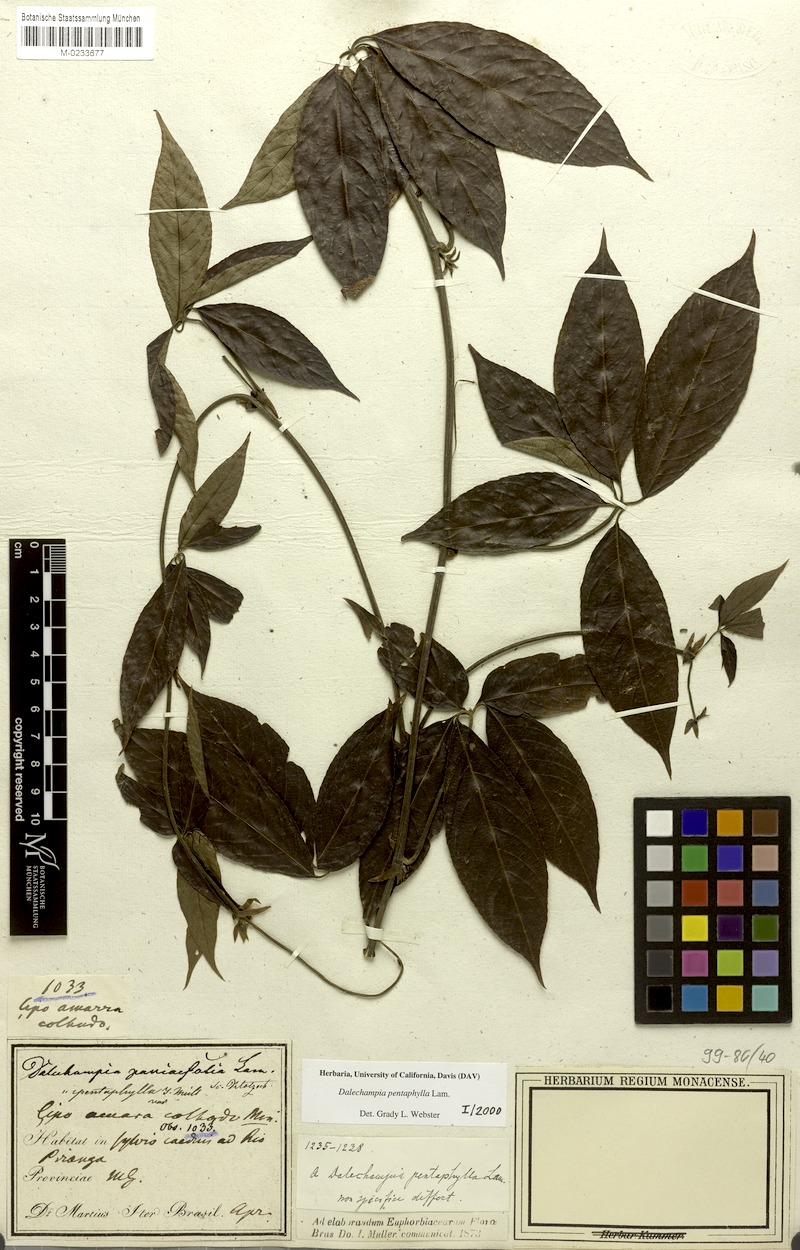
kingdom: Plantae
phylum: Tracheophyta
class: Magnoliopsida
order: Malpighiales
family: Euphorbiaceae
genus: Dalechampia
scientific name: Dalechampia pentaphylla
